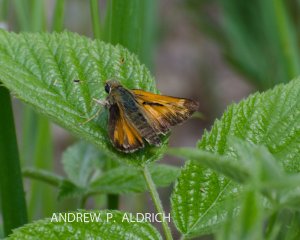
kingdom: Animalia
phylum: Arthropoda
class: Insecta
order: Lepidoptera
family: Hesperiidae
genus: Hesperia
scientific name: Hesperia sassacus
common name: Sassacus Skipper
